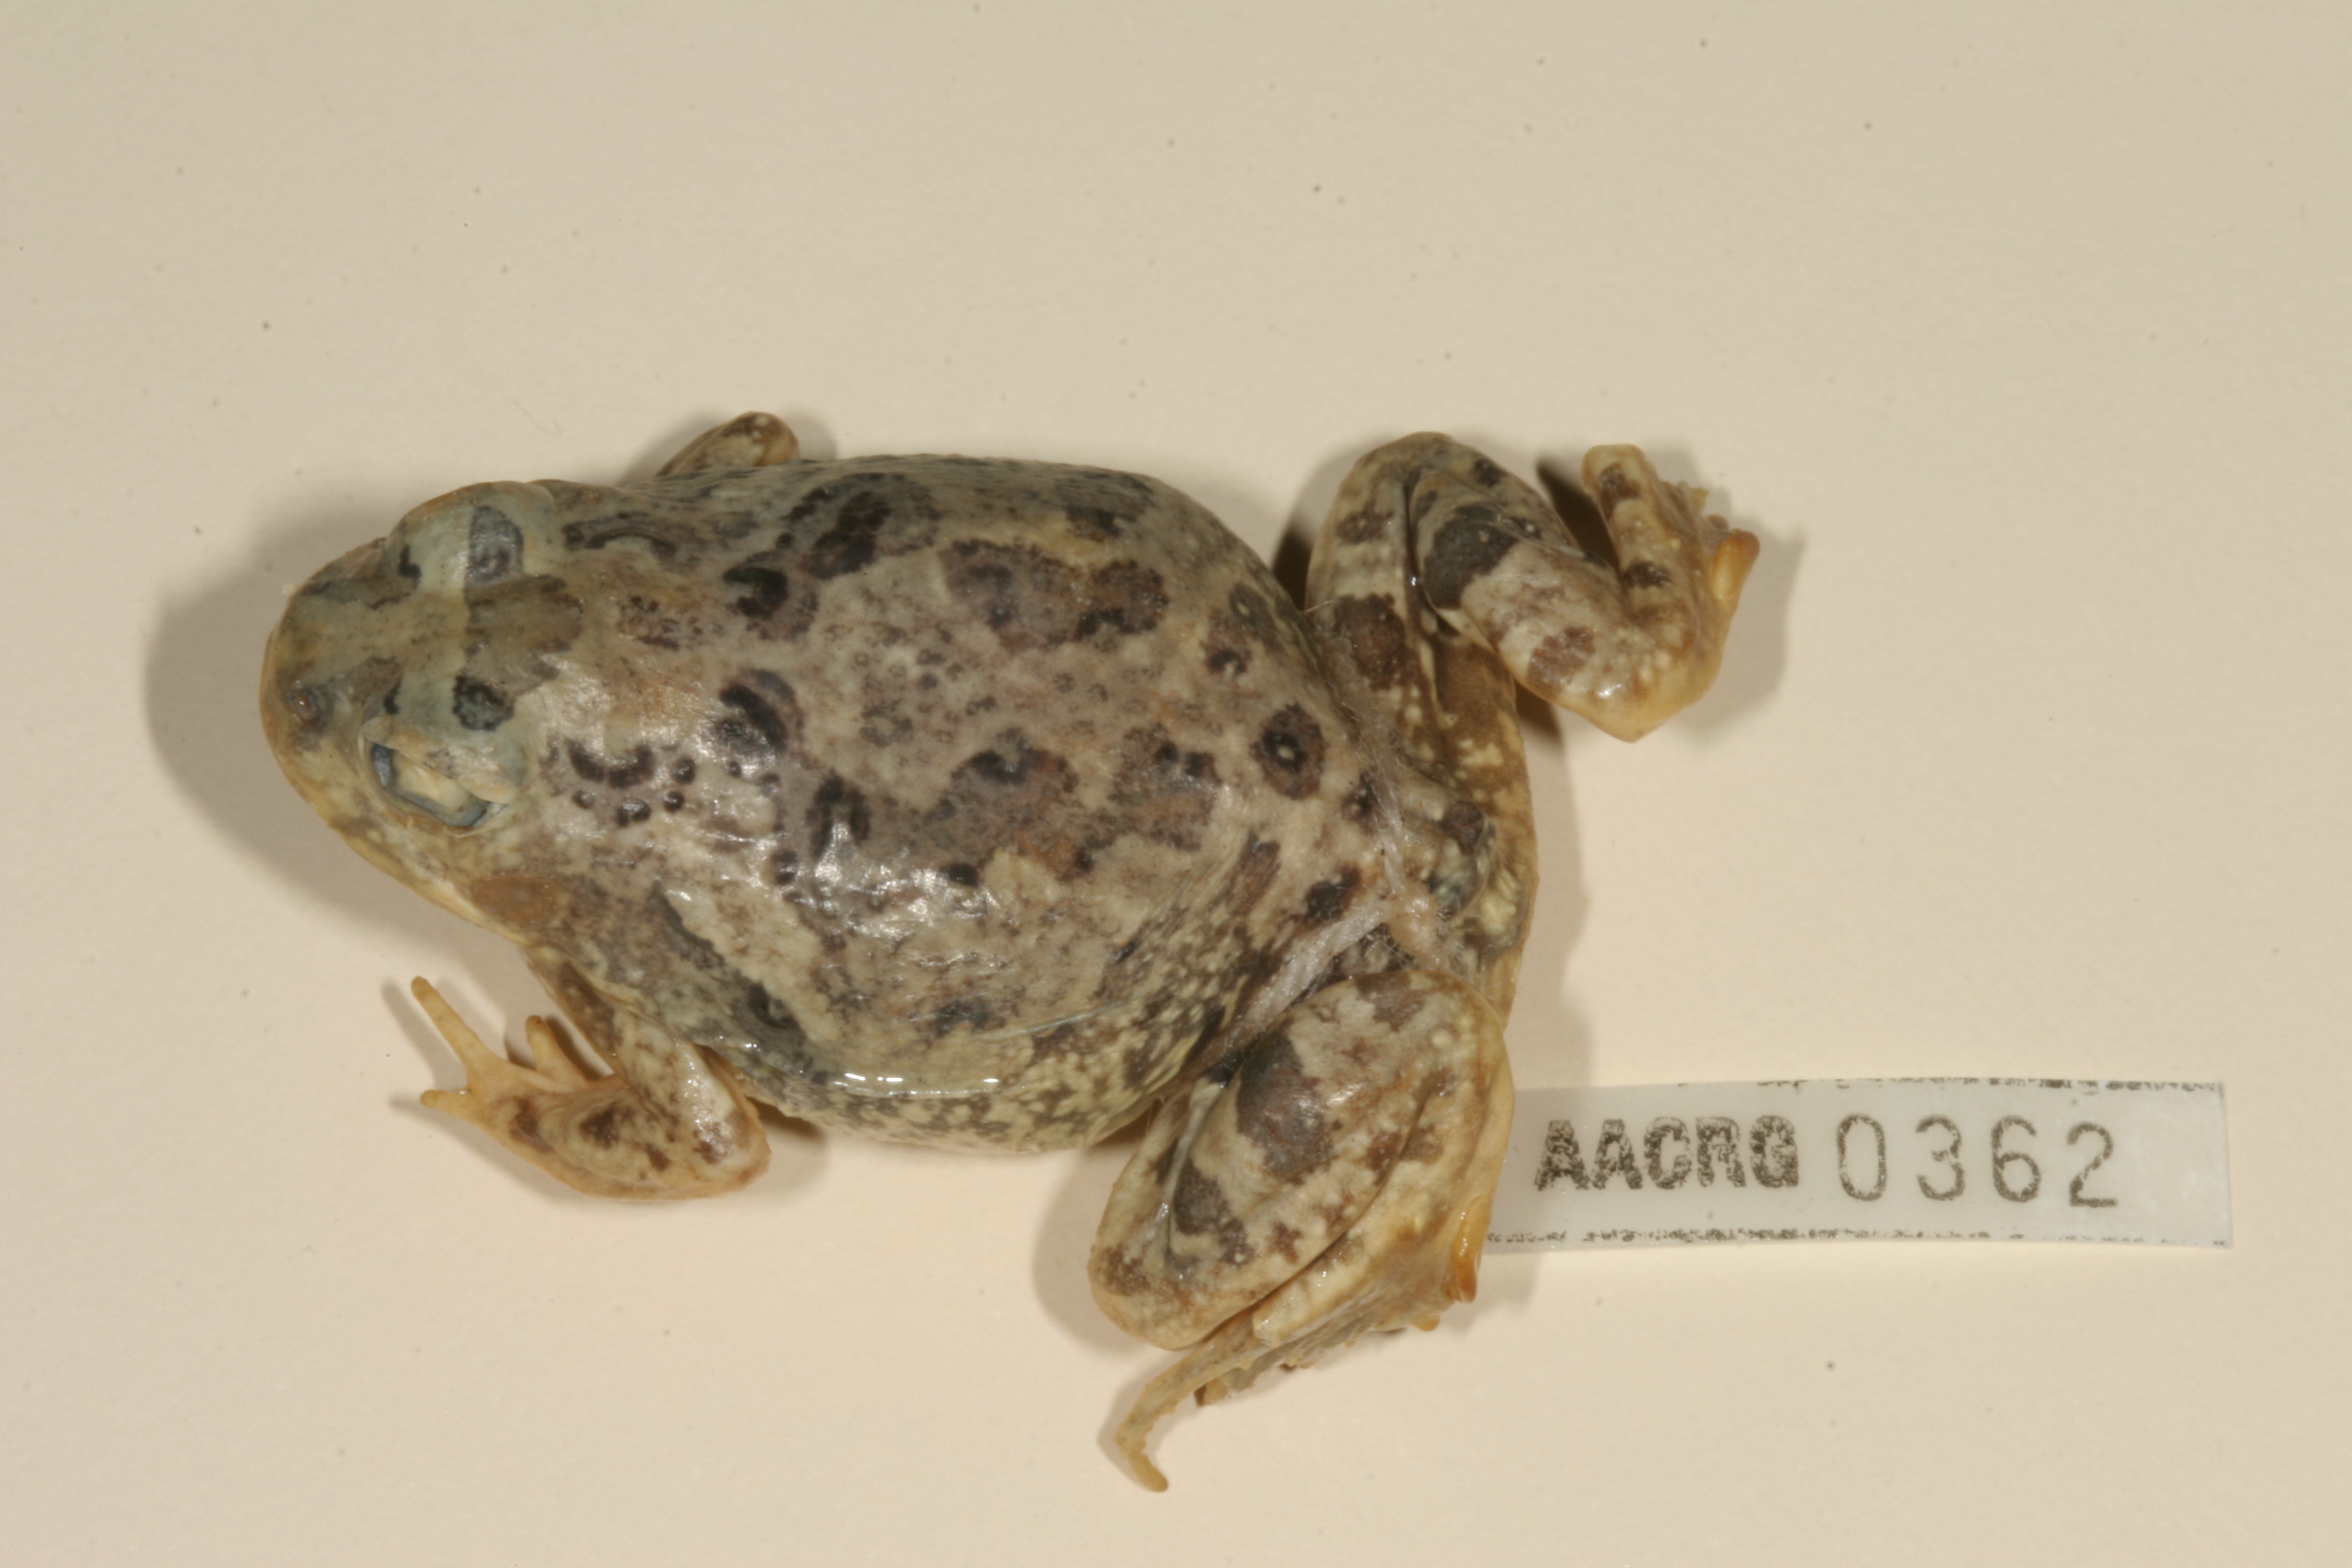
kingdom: Animalia
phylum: Chordata
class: Amphibia
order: Anura
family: Pyxicephalidae
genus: Tomopterna
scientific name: Tomopterna cryptotis
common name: Catequero bullfrog
